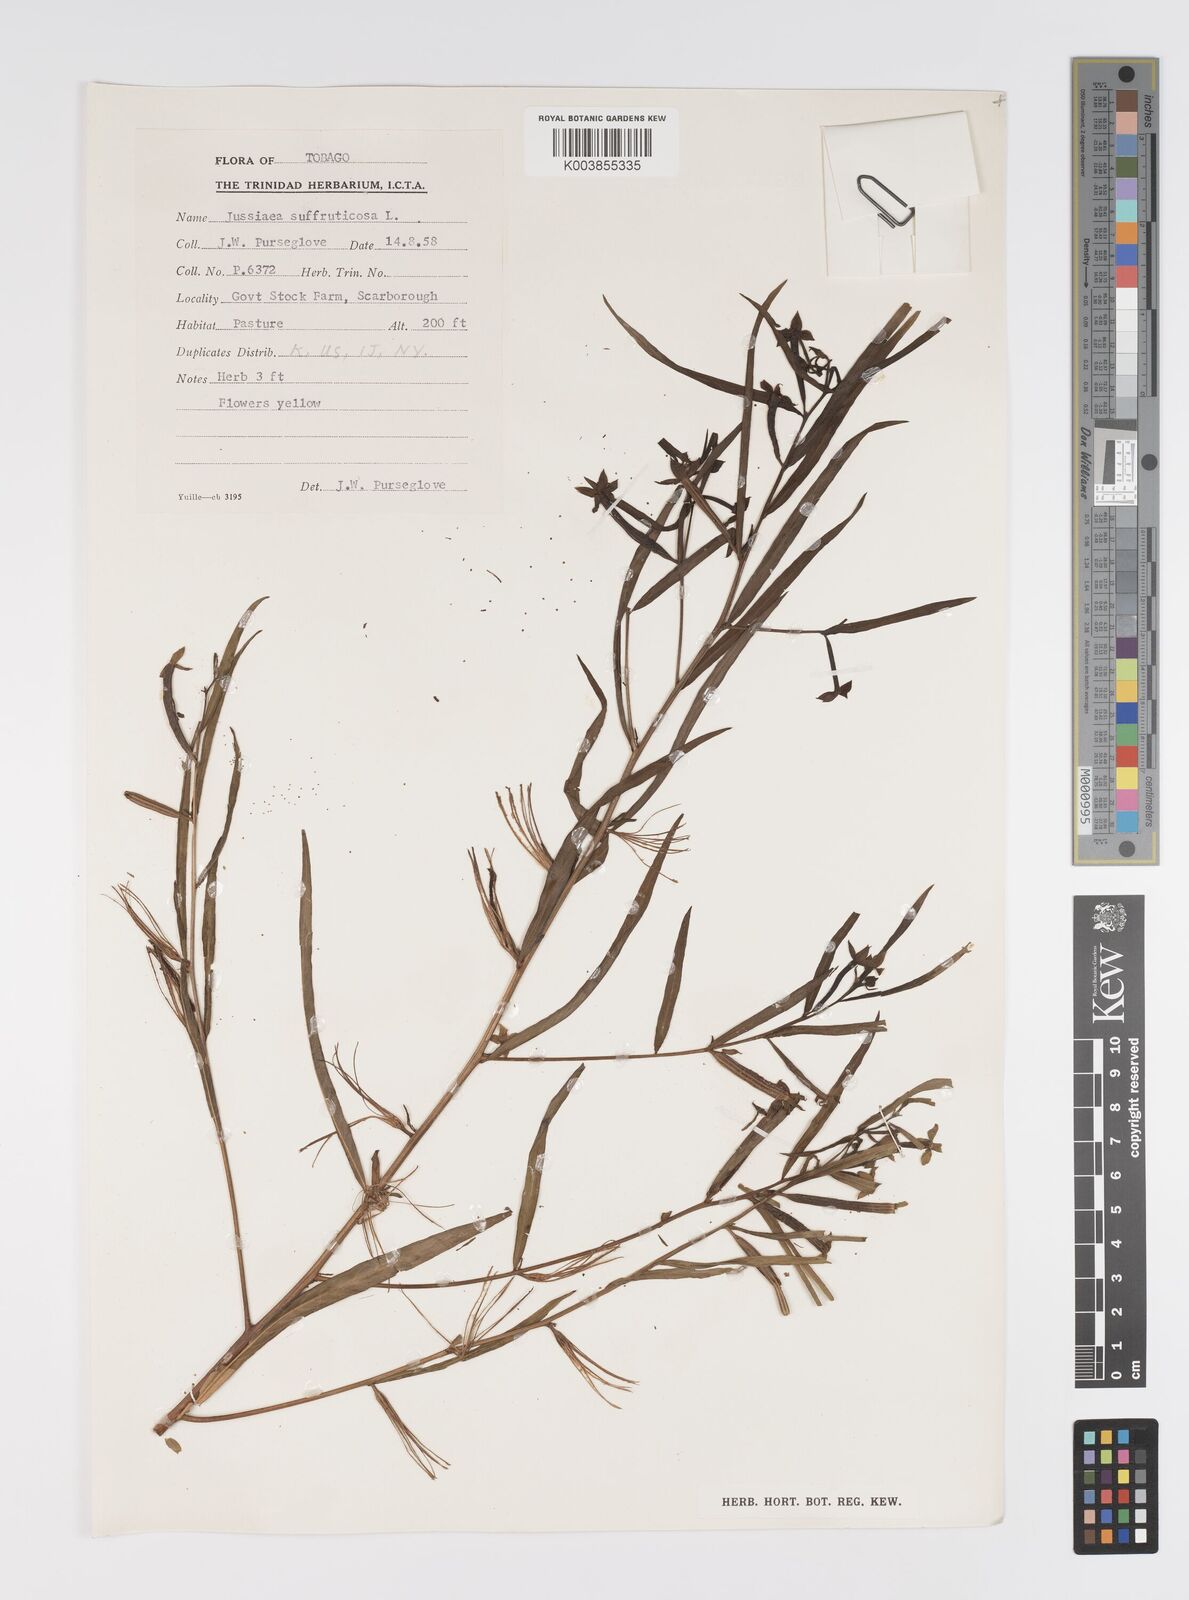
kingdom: Plantae
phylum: Tracheophyta
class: Magnoliopsida
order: Myrtales
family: Onagraceae
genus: Ludwigia
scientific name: Ludwigia
